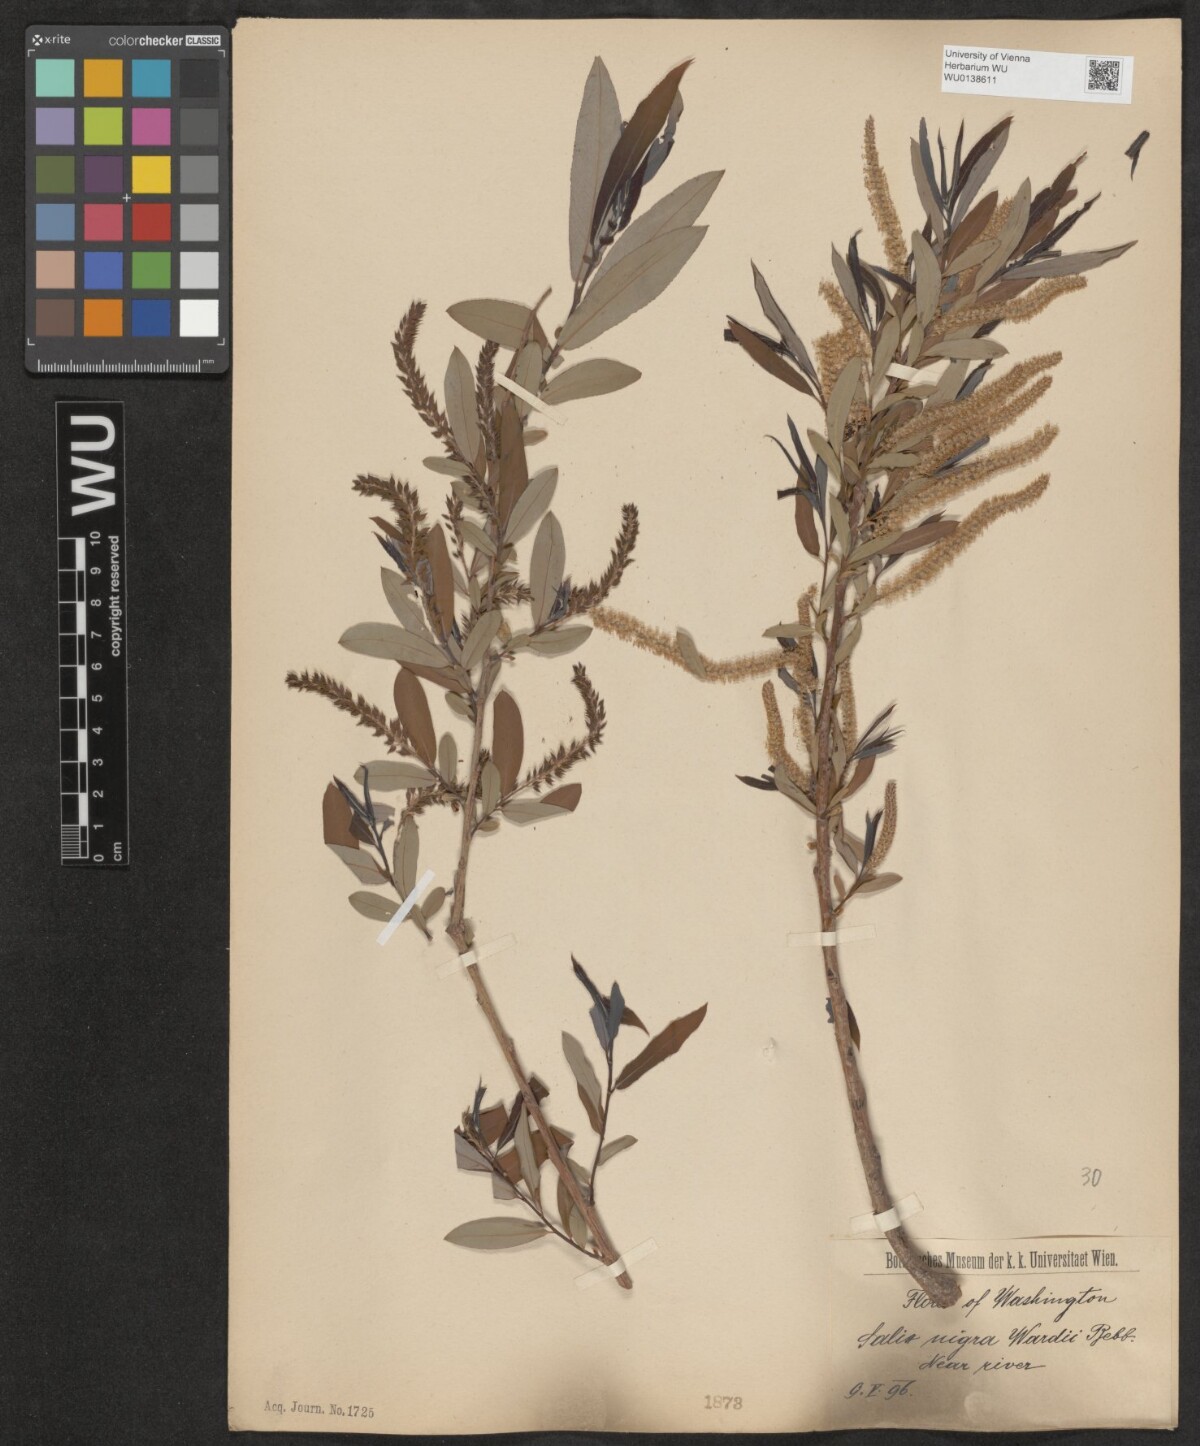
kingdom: Plantae
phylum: Tracheophyta
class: Magnoliopsida
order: Malpighiales
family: Salicaceae
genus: Salix
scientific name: Salix nigra
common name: Black willow
